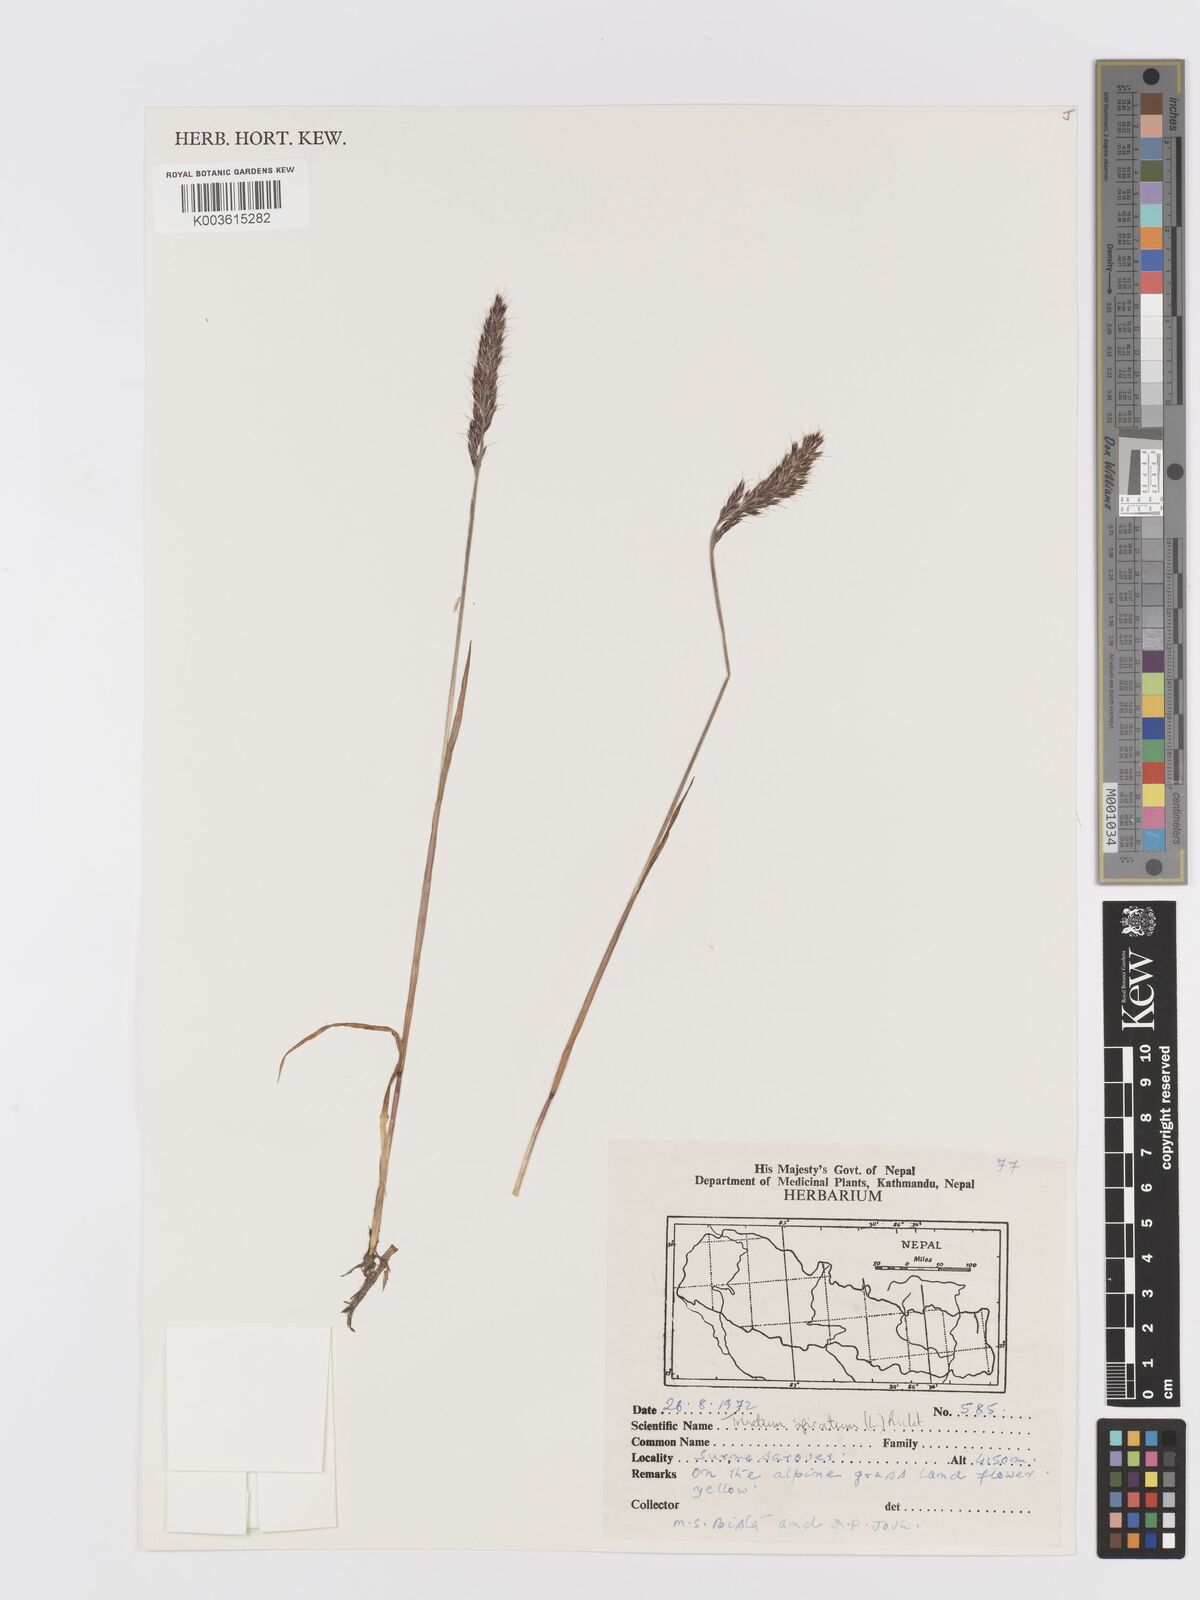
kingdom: Plantae
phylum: Tracheophyta
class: Liliopsida
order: Poales
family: Poaceae
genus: Koeleria
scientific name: Koeleria spicata
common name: Mountain trisetum
